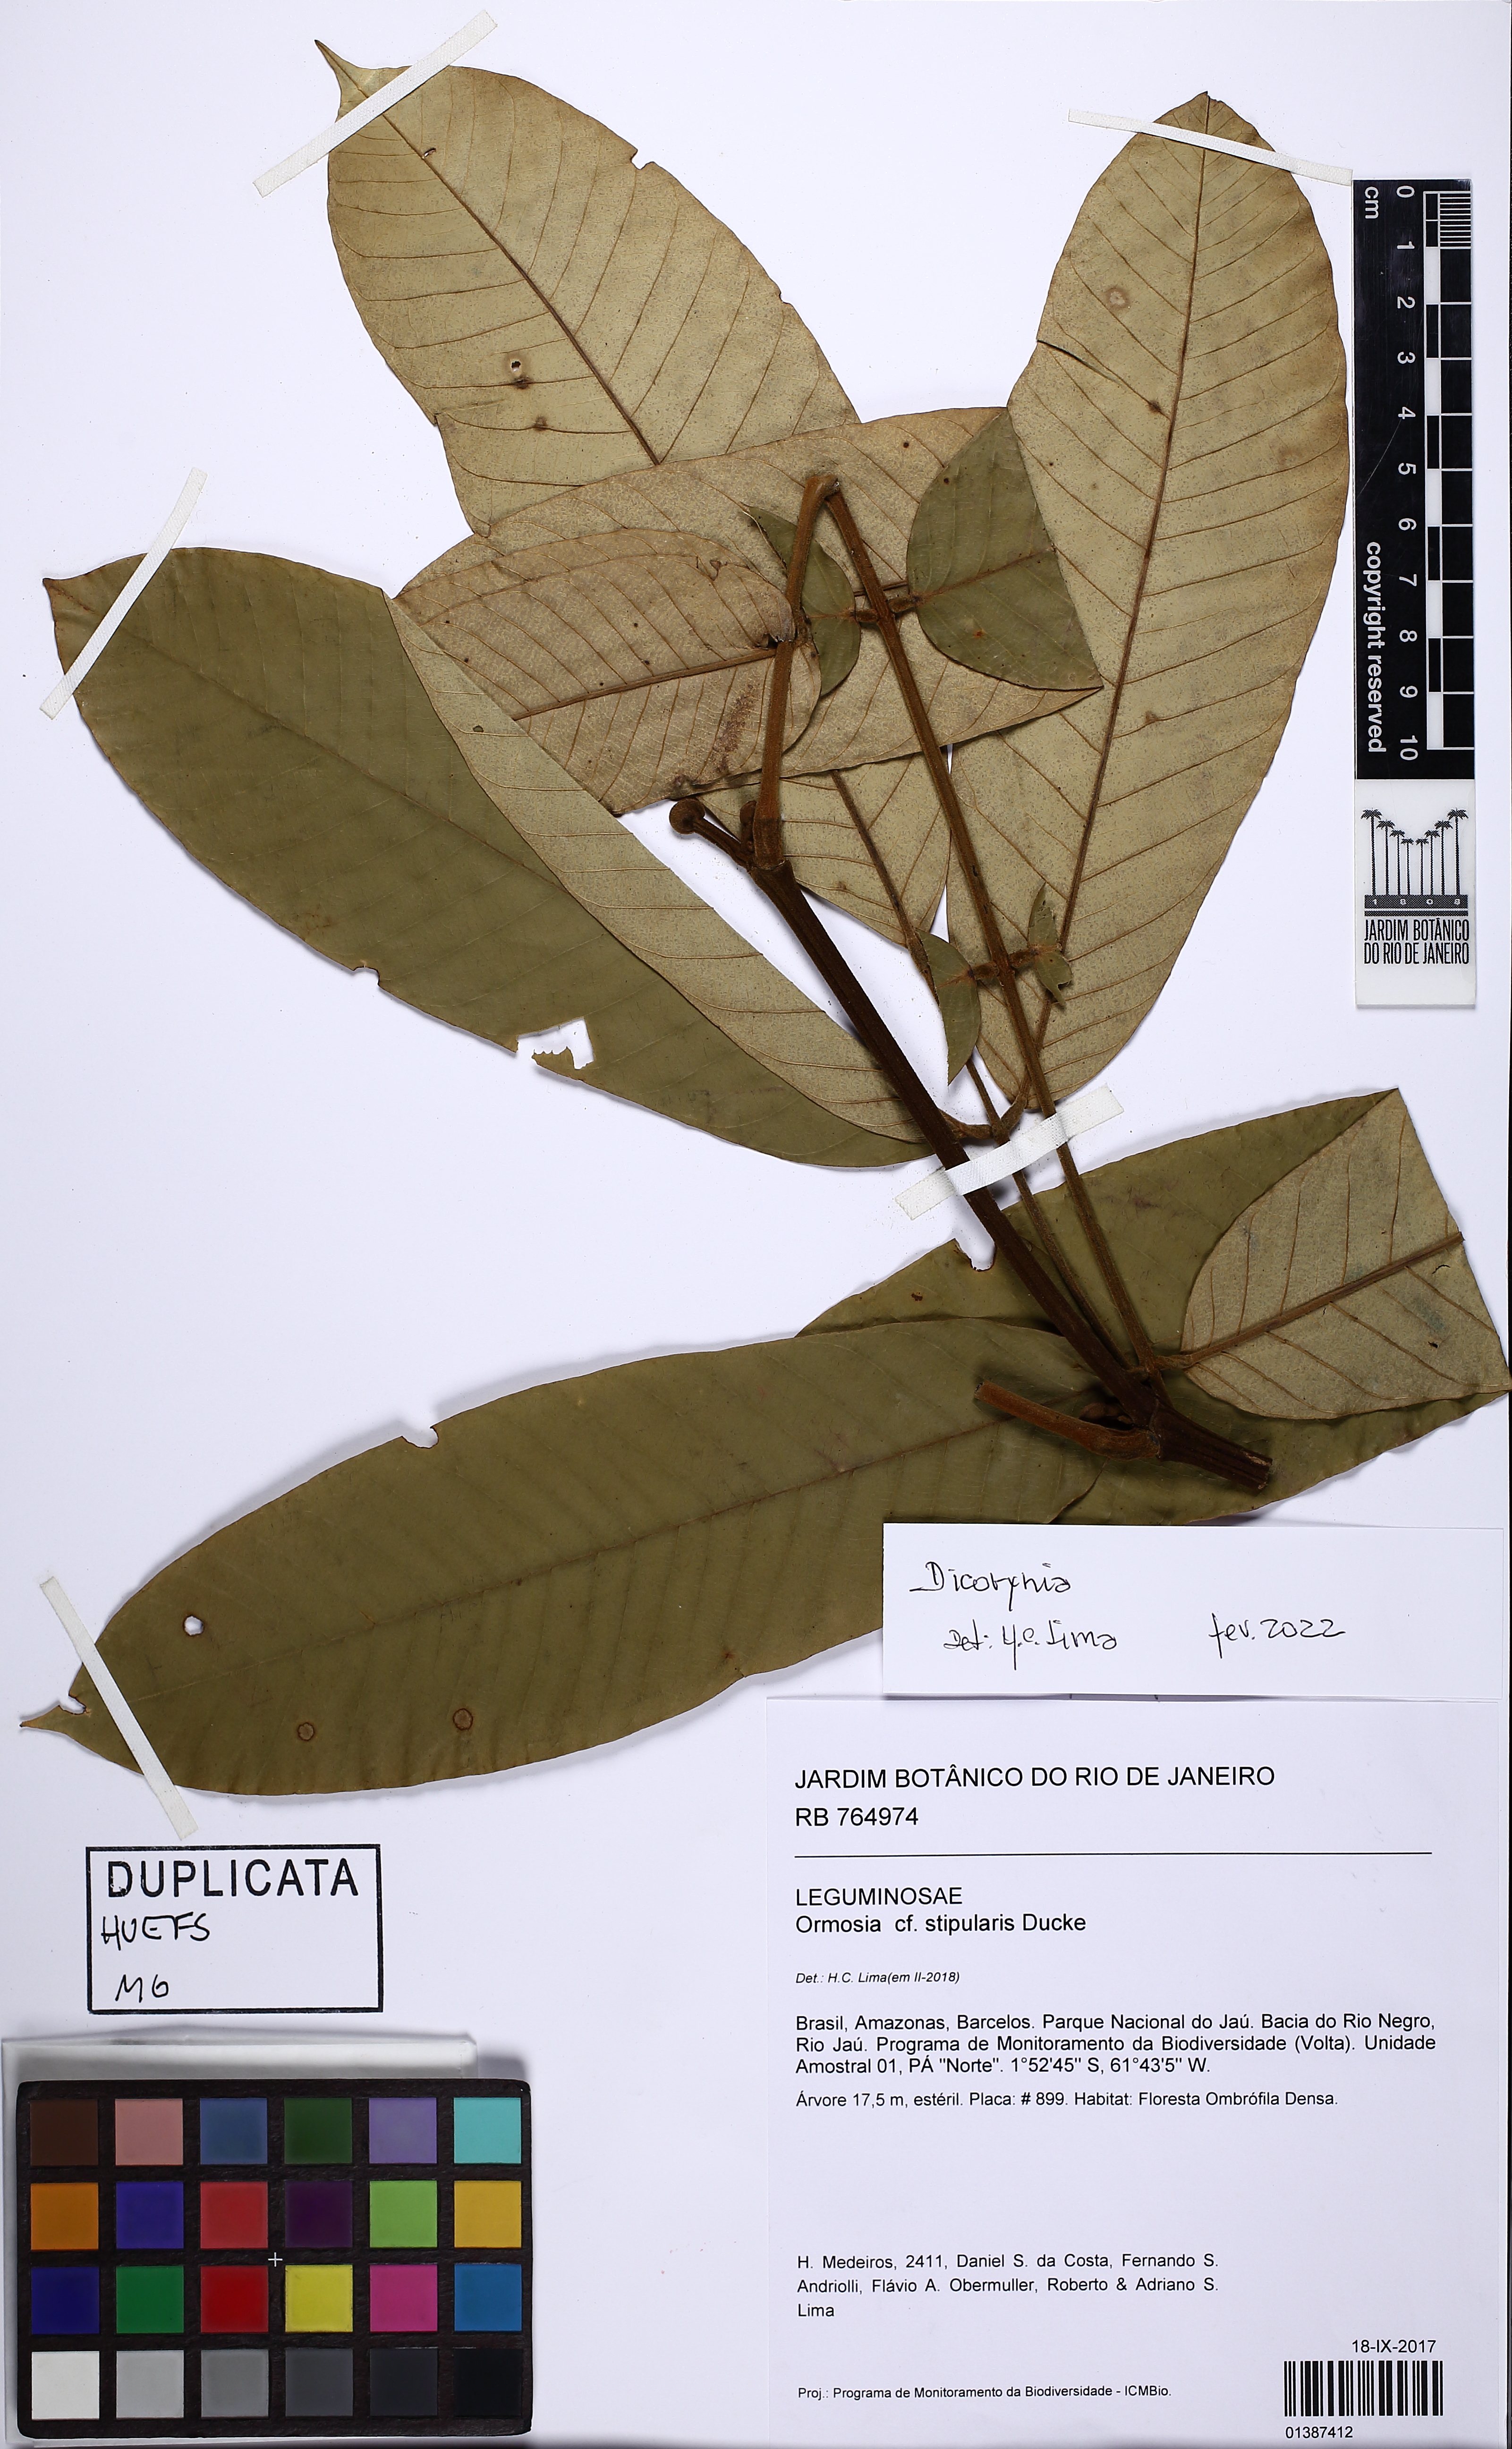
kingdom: Plantae
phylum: Tracheophyta
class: Magnoliopsida
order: Fabales
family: Fabaceae
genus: Swartzia
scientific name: Swartzia panacoco
